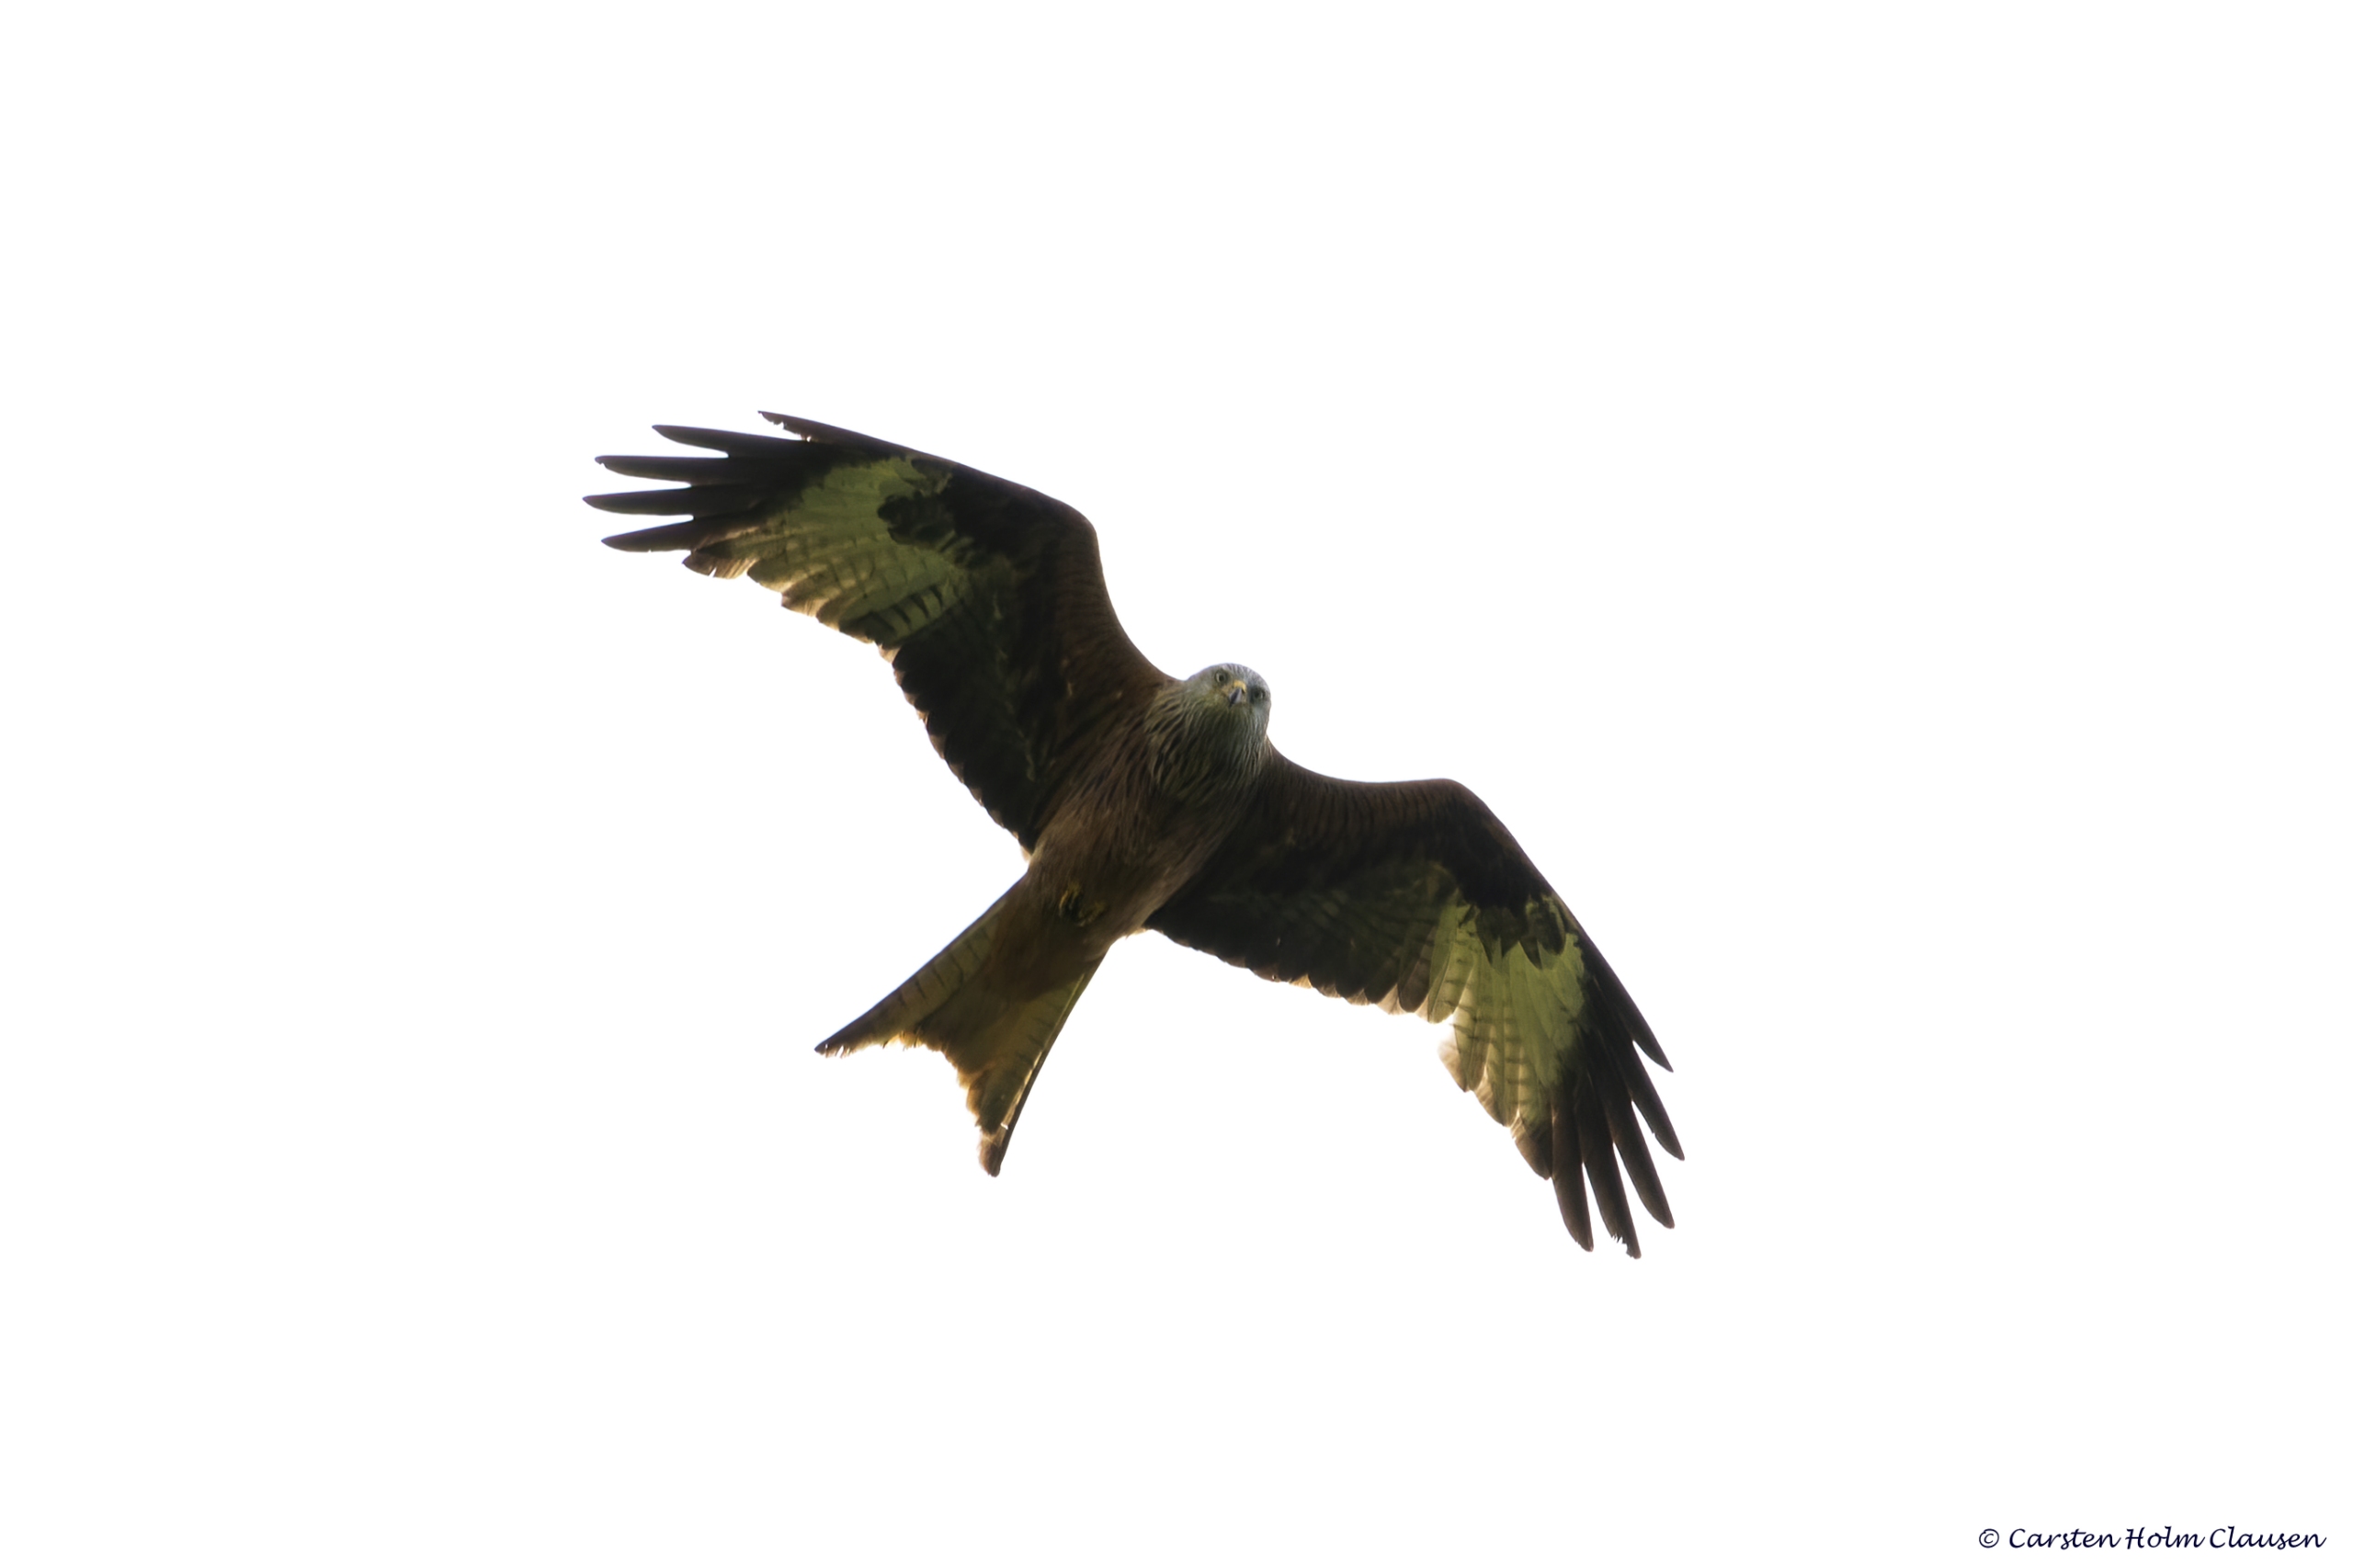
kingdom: Animalia
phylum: Chordata
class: Aves
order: Accipitriformes
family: Accipitridae
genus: Milvus
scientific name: Milvus milvus
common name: Rød glente
